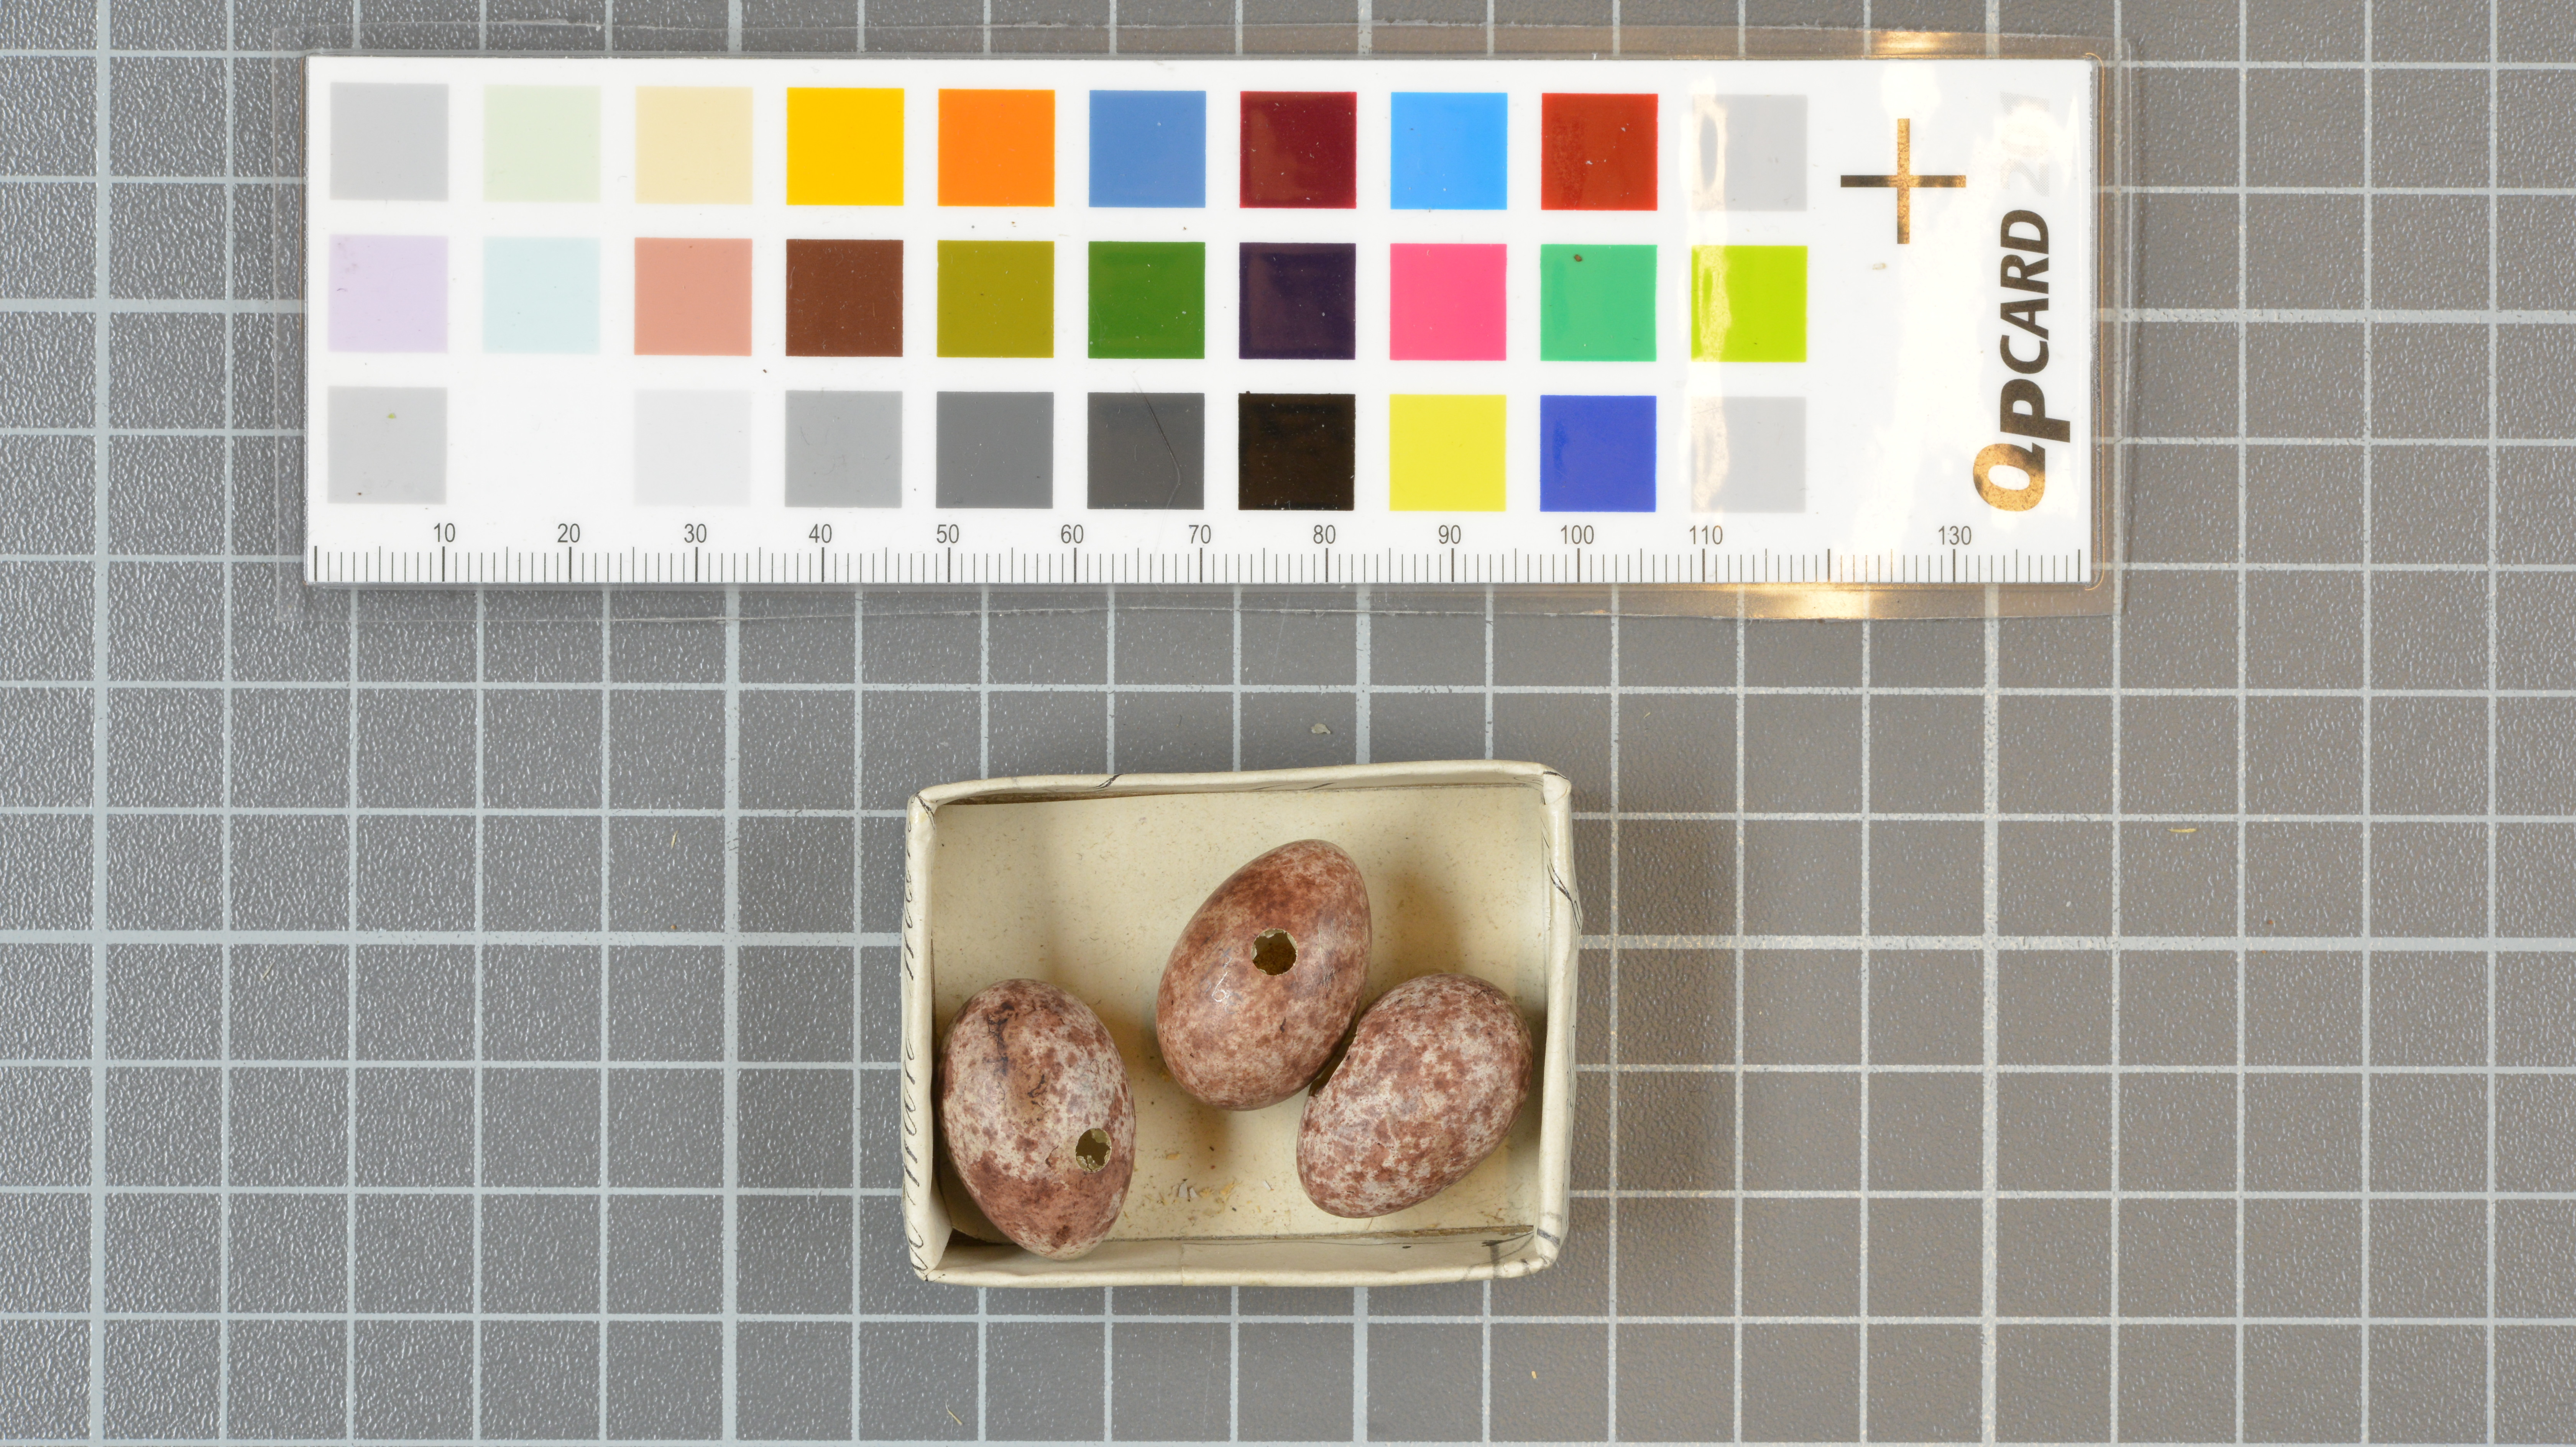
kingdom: Animalia
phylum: Chordata
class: Aves
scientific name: Aves
